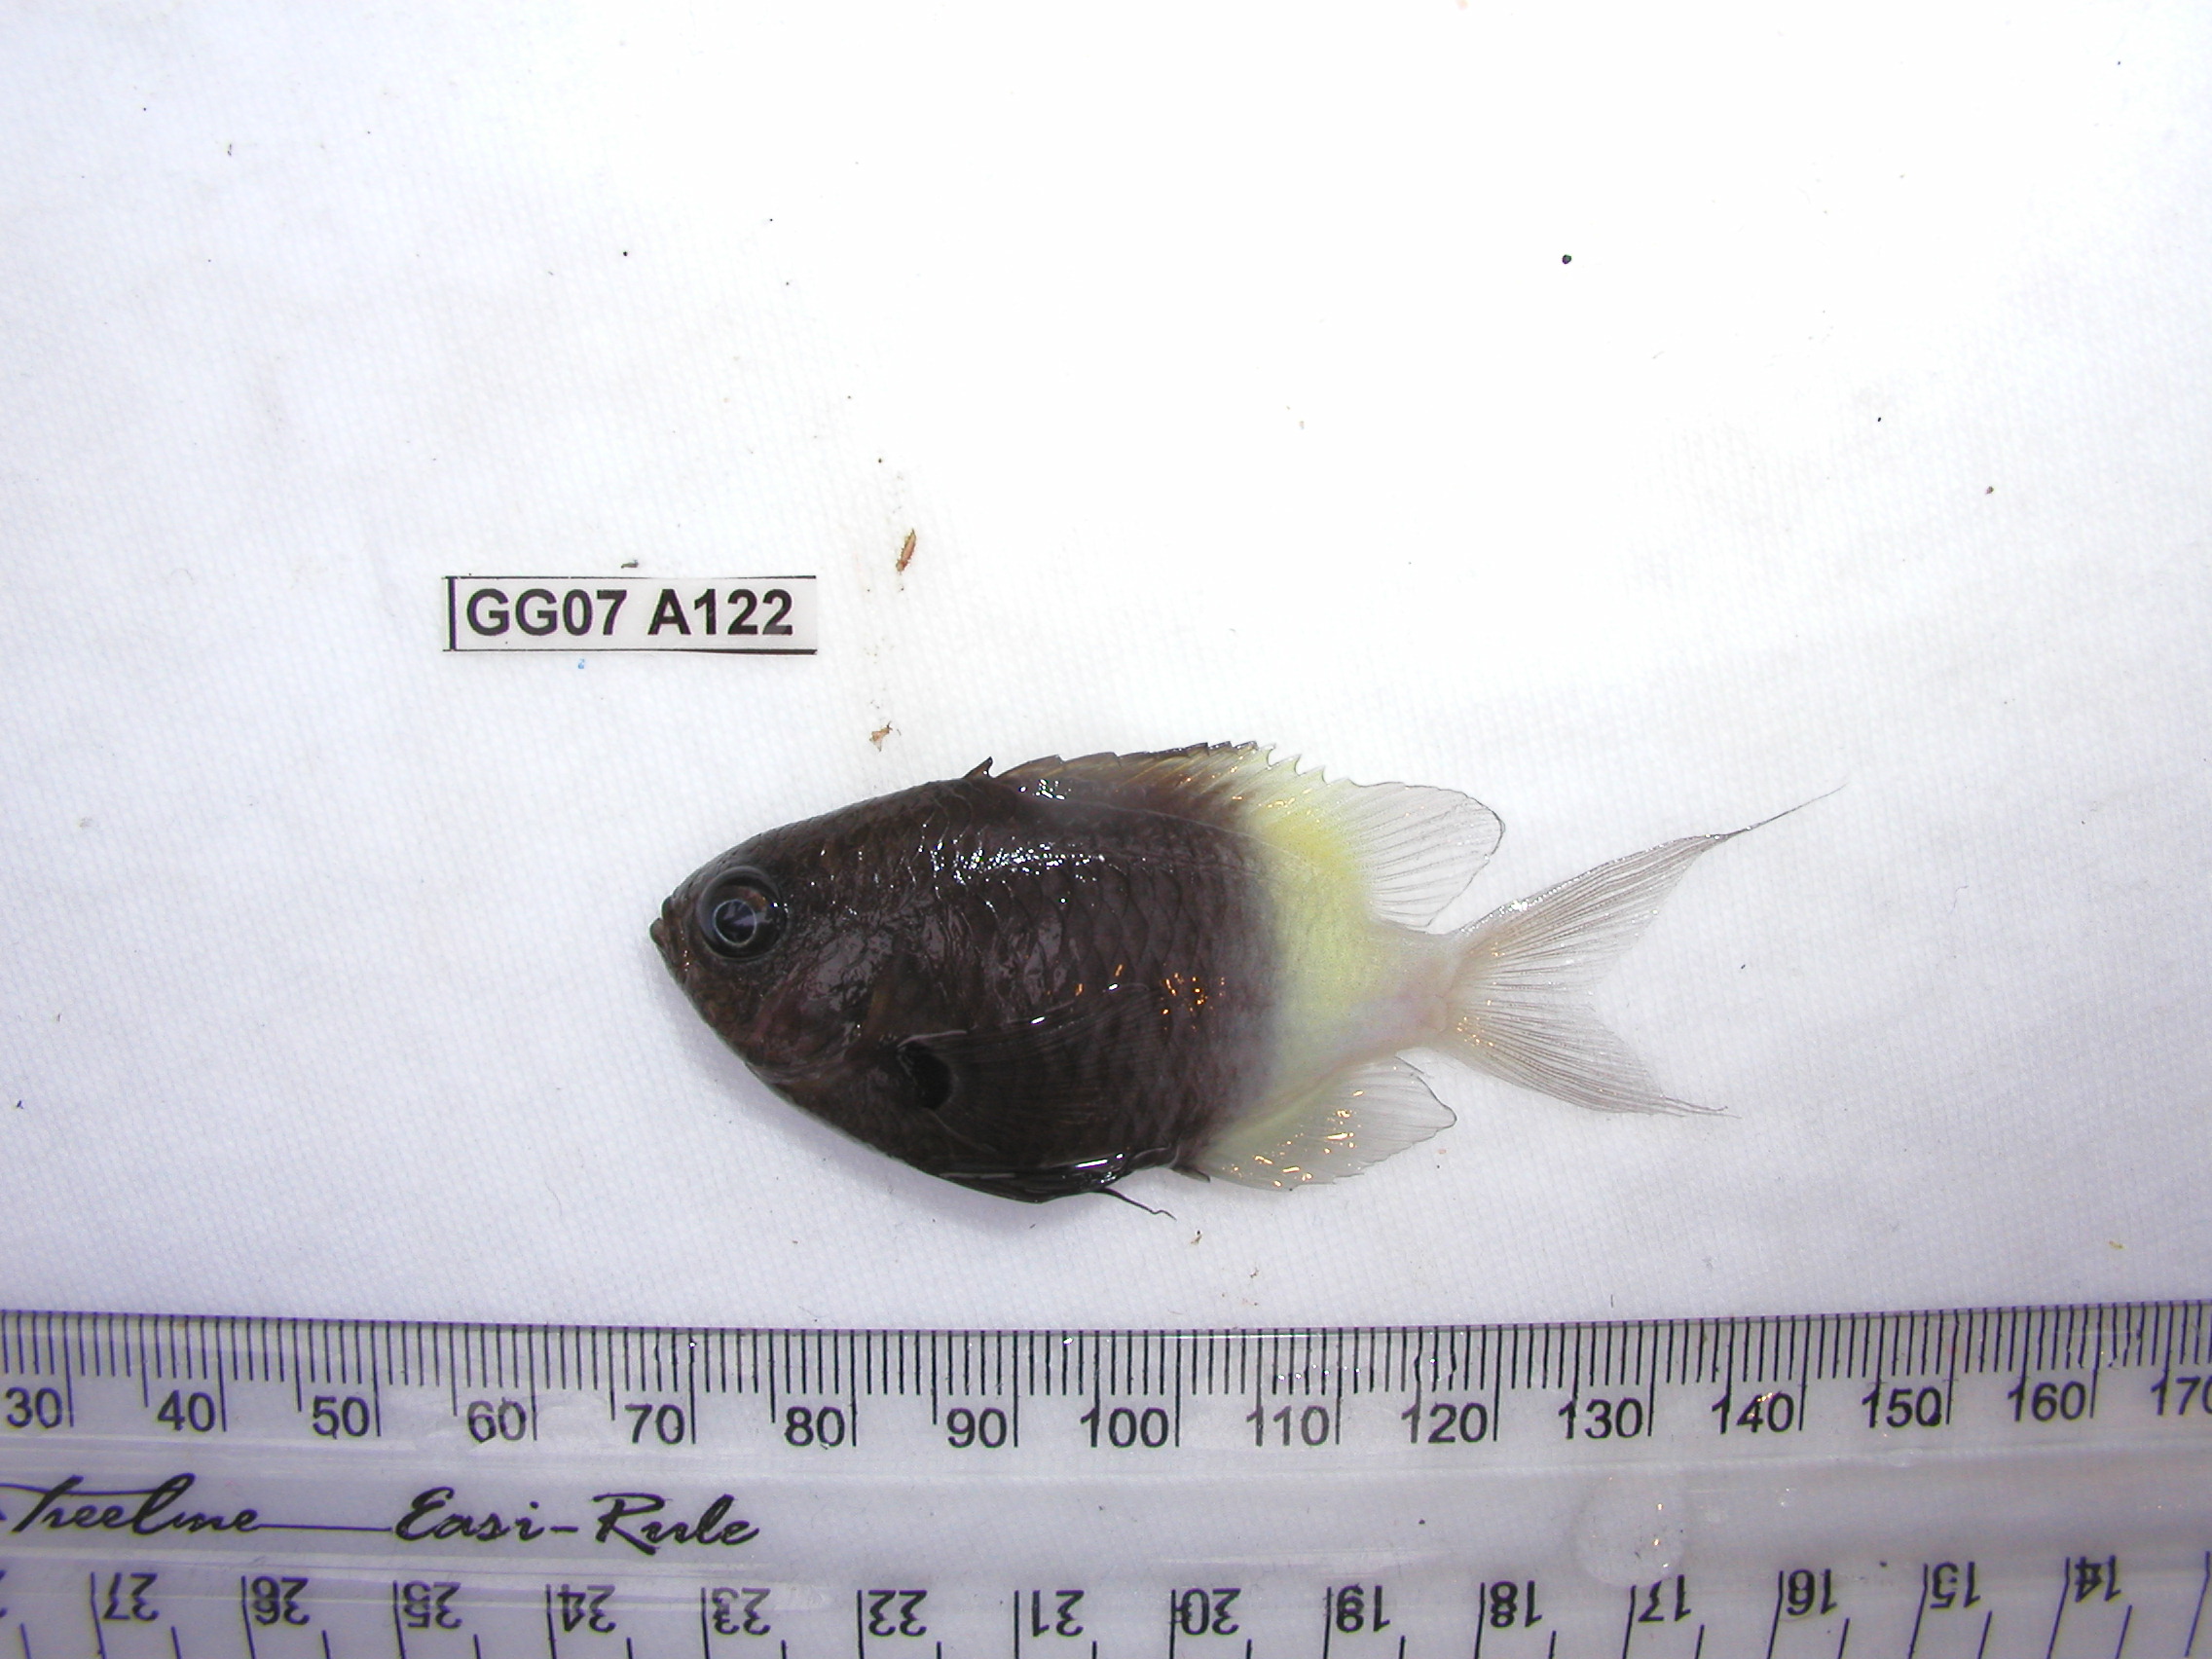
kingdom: Animalia
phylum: Chordata
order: Perciformes
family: Pomacentridae
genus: Chromis
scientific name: Chromis dimidiata
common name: Half-and-half chromis
